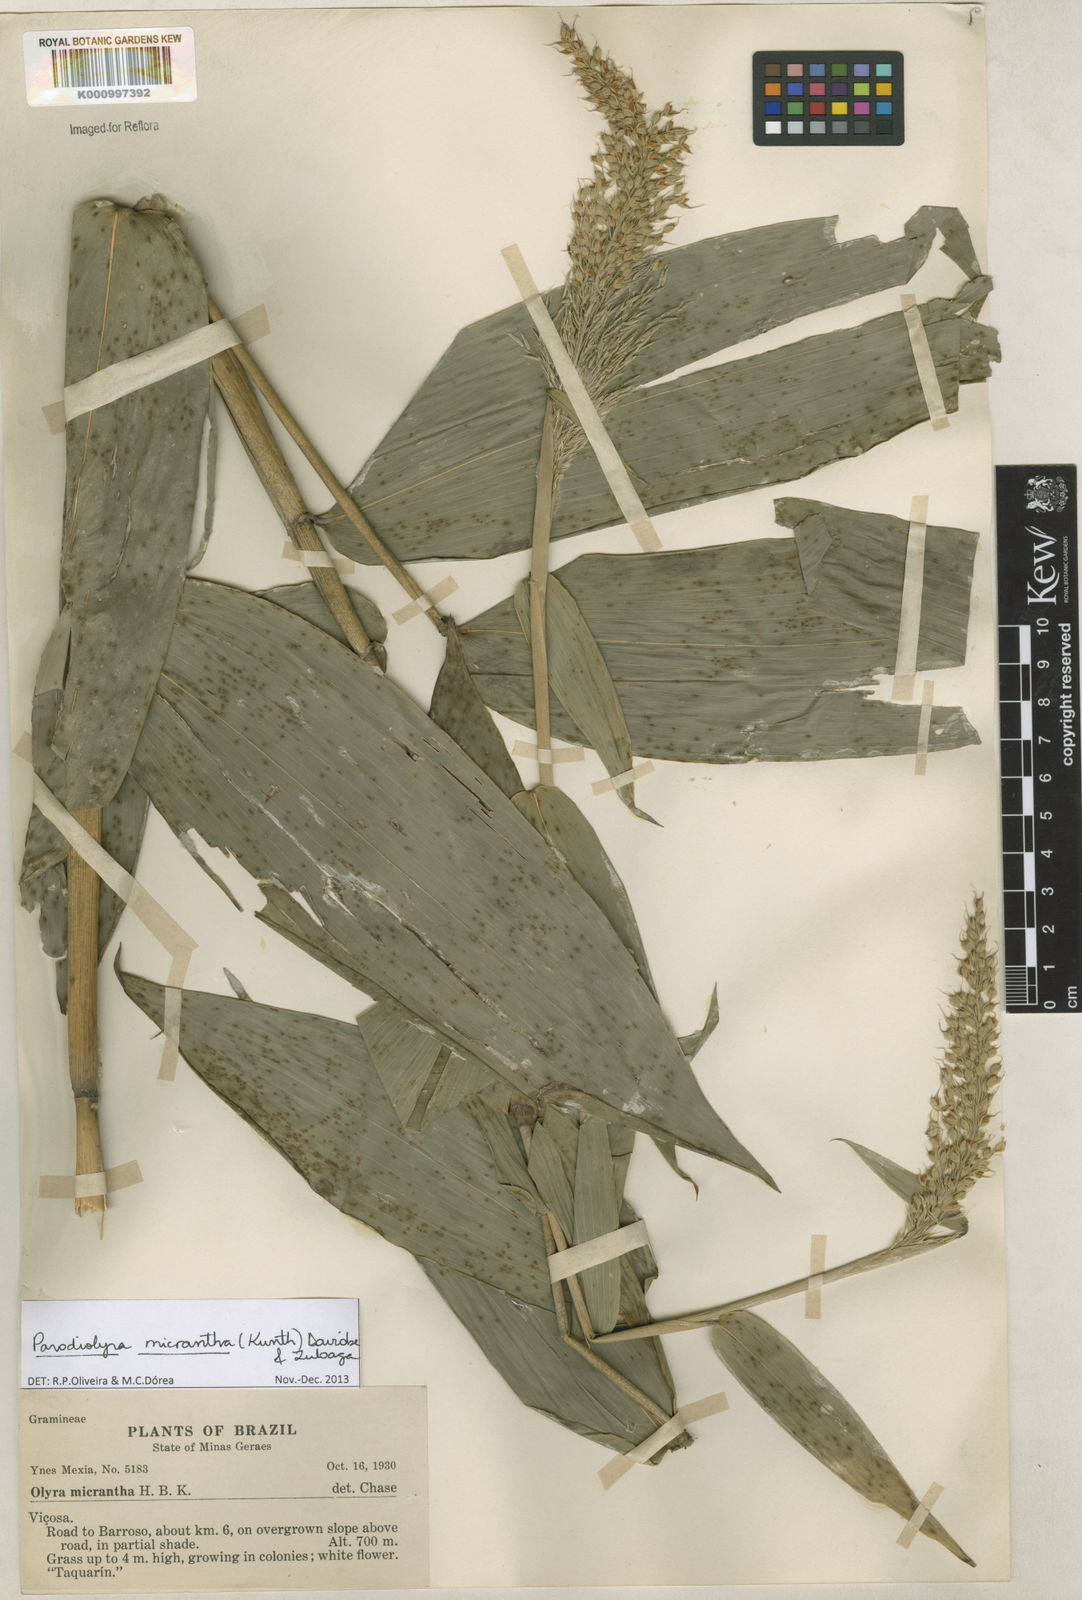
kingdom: Plantae
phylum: Tracheophyta
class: Liliopsida
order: Poales
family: Poaceae
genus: Taquara
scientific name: Taquara micrantha
